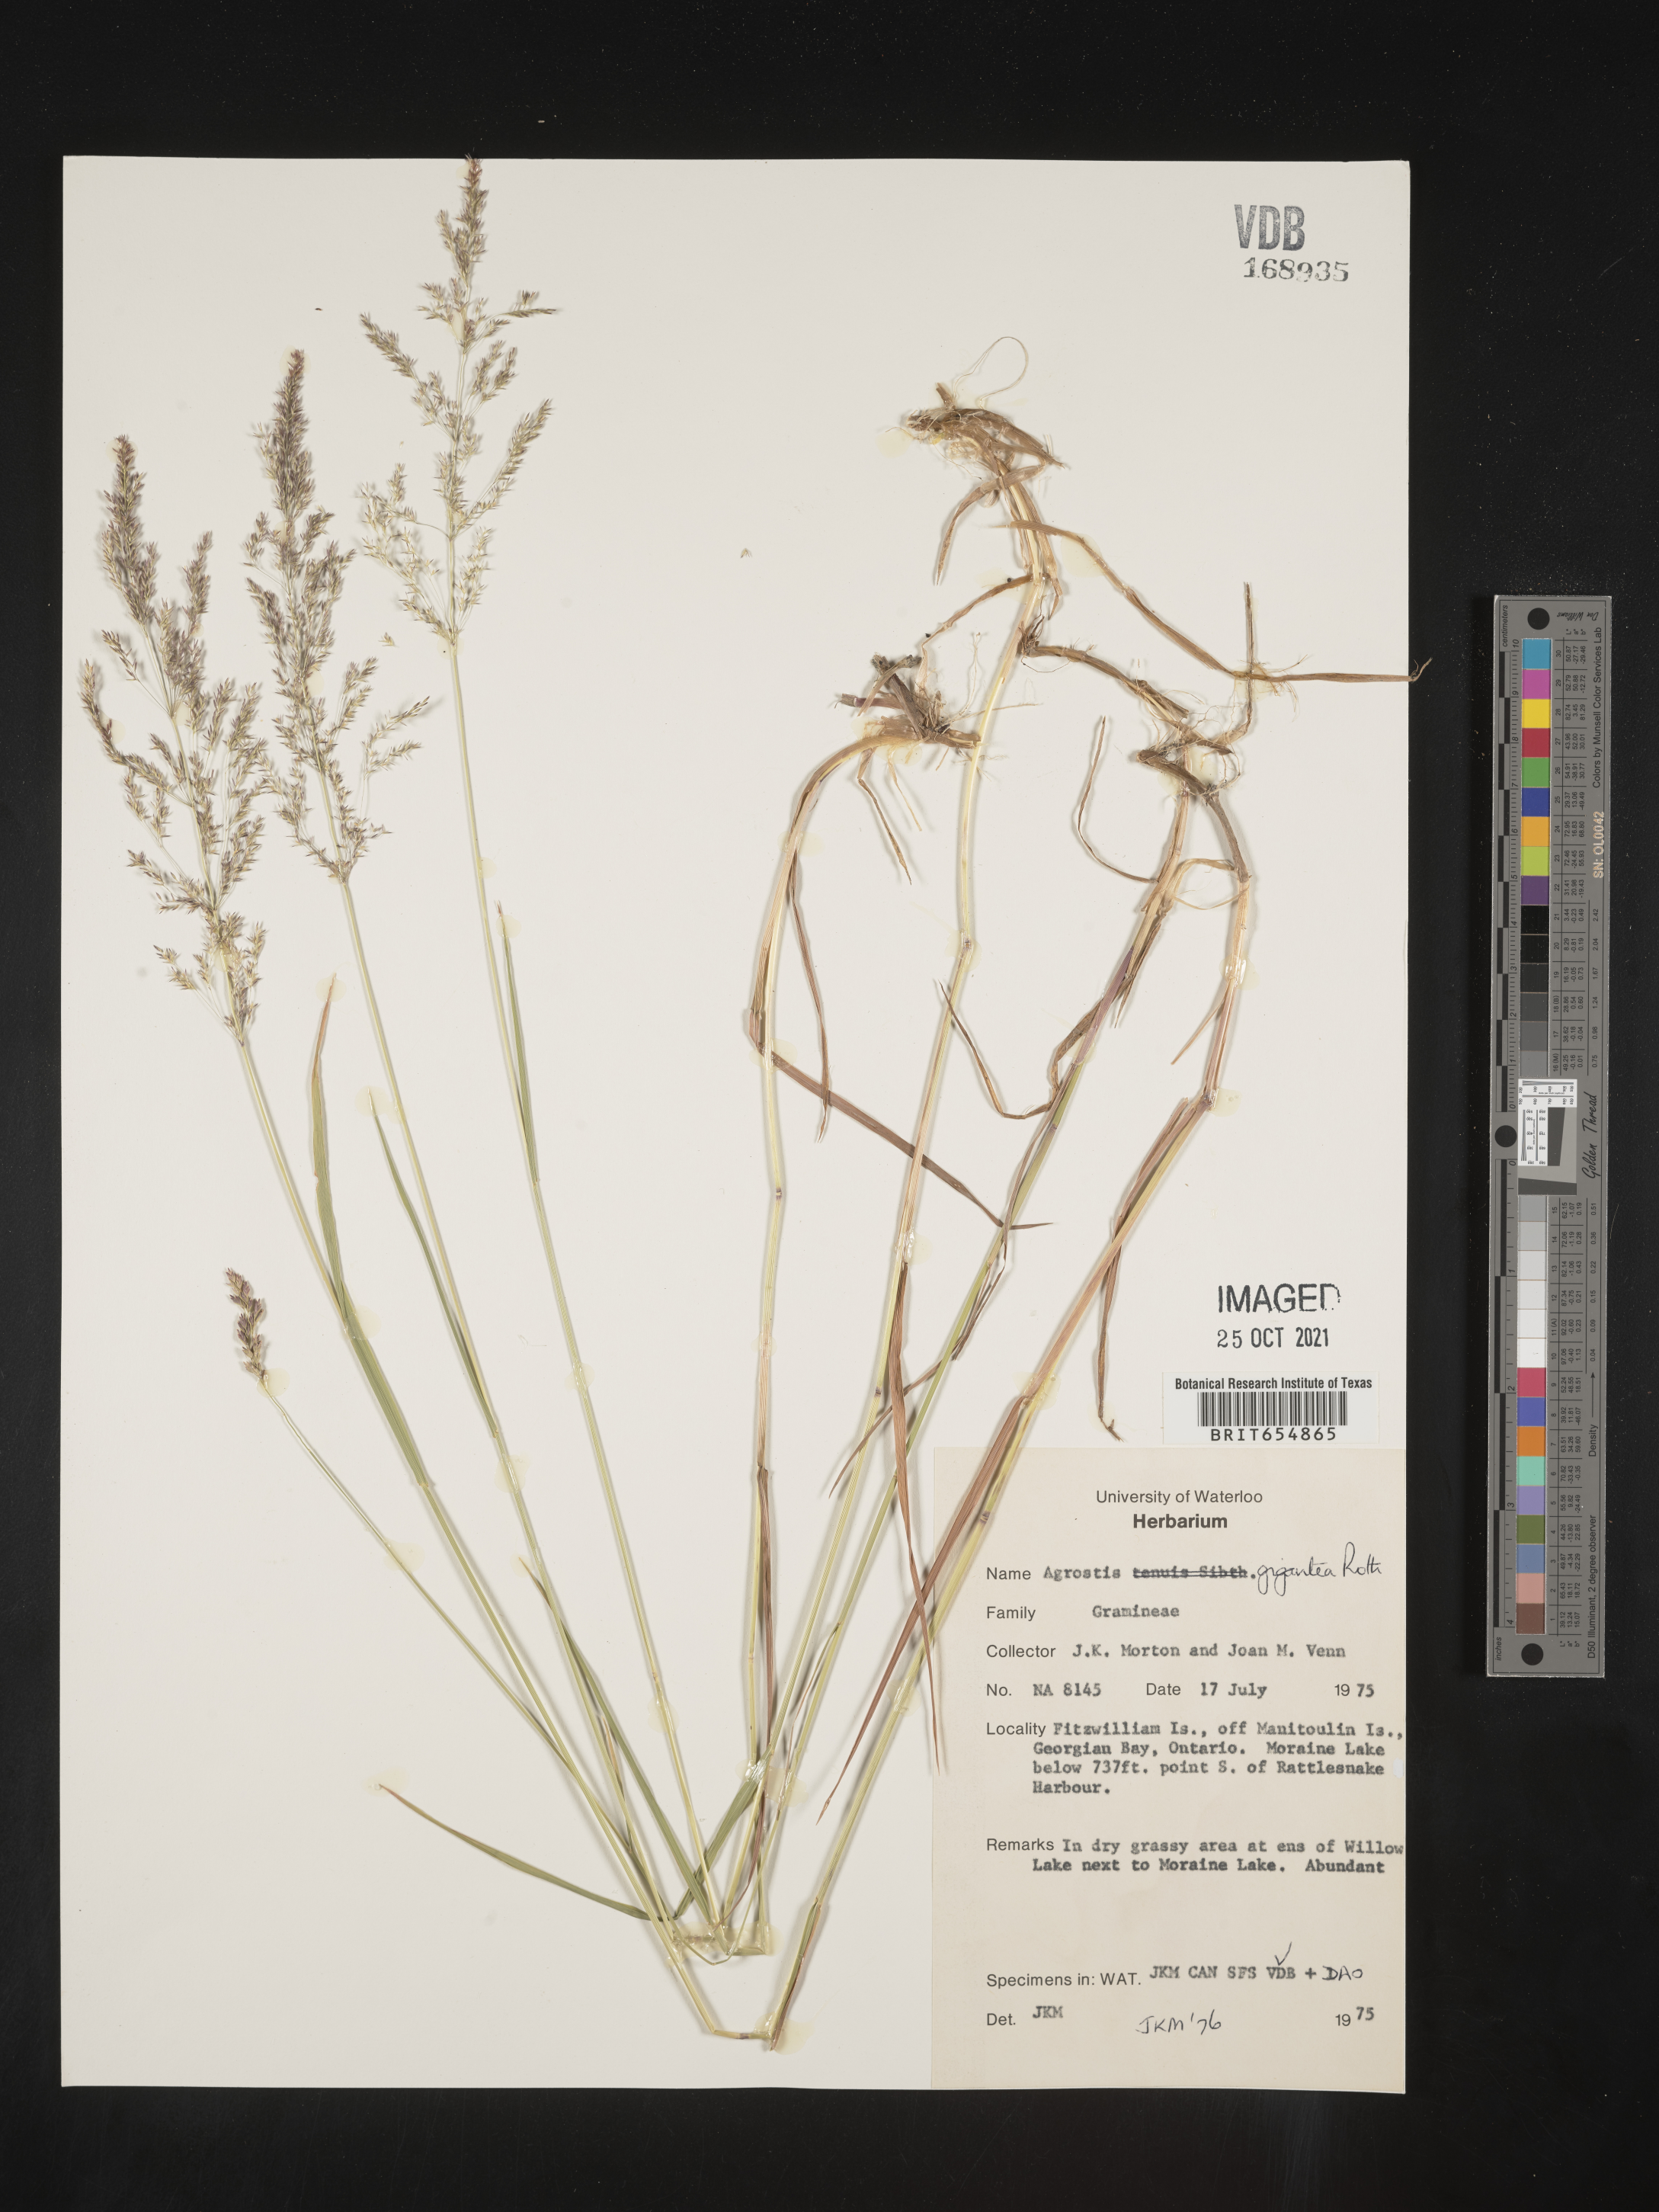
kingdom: Plantae
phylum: Tracheophyta
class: Liliopsida
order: Poales
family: Poaceae
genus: Agrostis
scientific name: Agrostis
